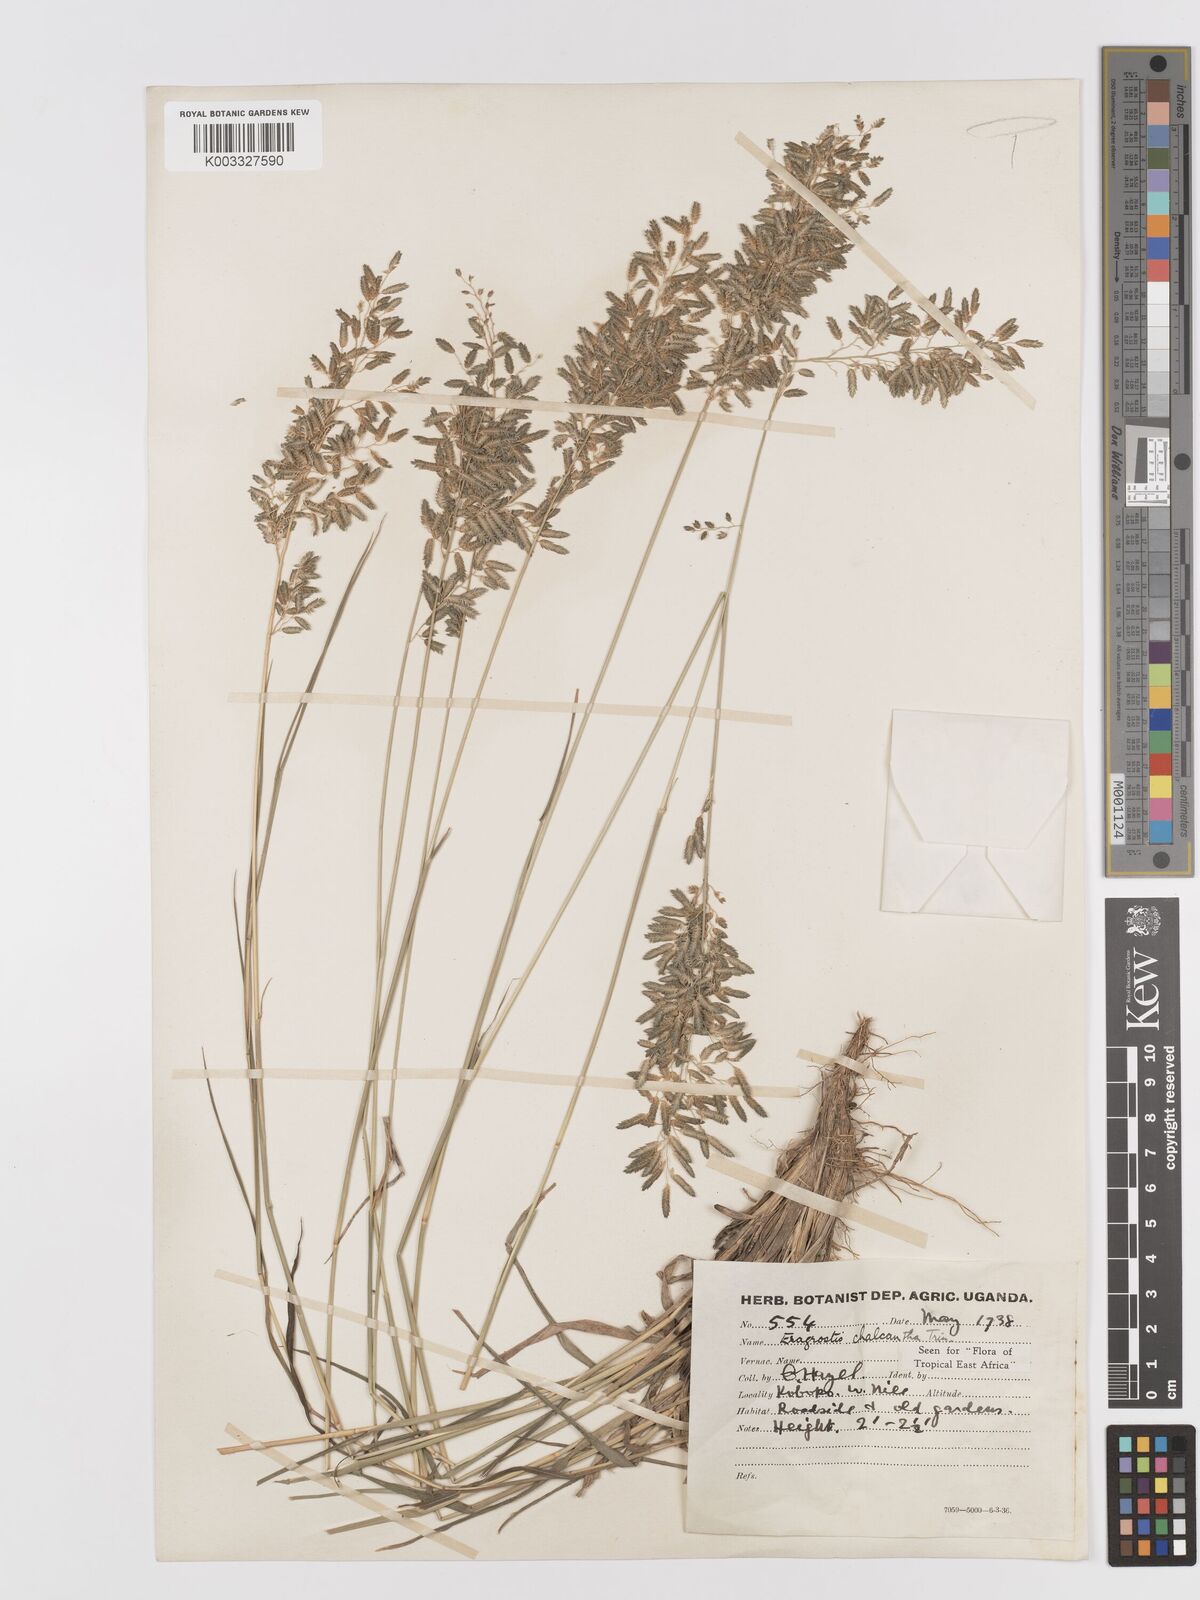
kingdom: Plantae
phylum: Tracheophyta
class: Liliopsida
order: Poales
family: Poaceae
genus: Eragrostis
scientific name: Eragrostis racemosa
